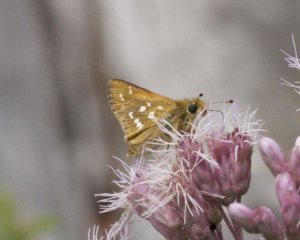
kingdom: Animalia
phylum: Arthropoda
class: Insecta
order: Lepidoptera
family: Hesperiidae
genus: Hesperia
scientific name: Hesperia comma
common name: Common Branded Skipper
